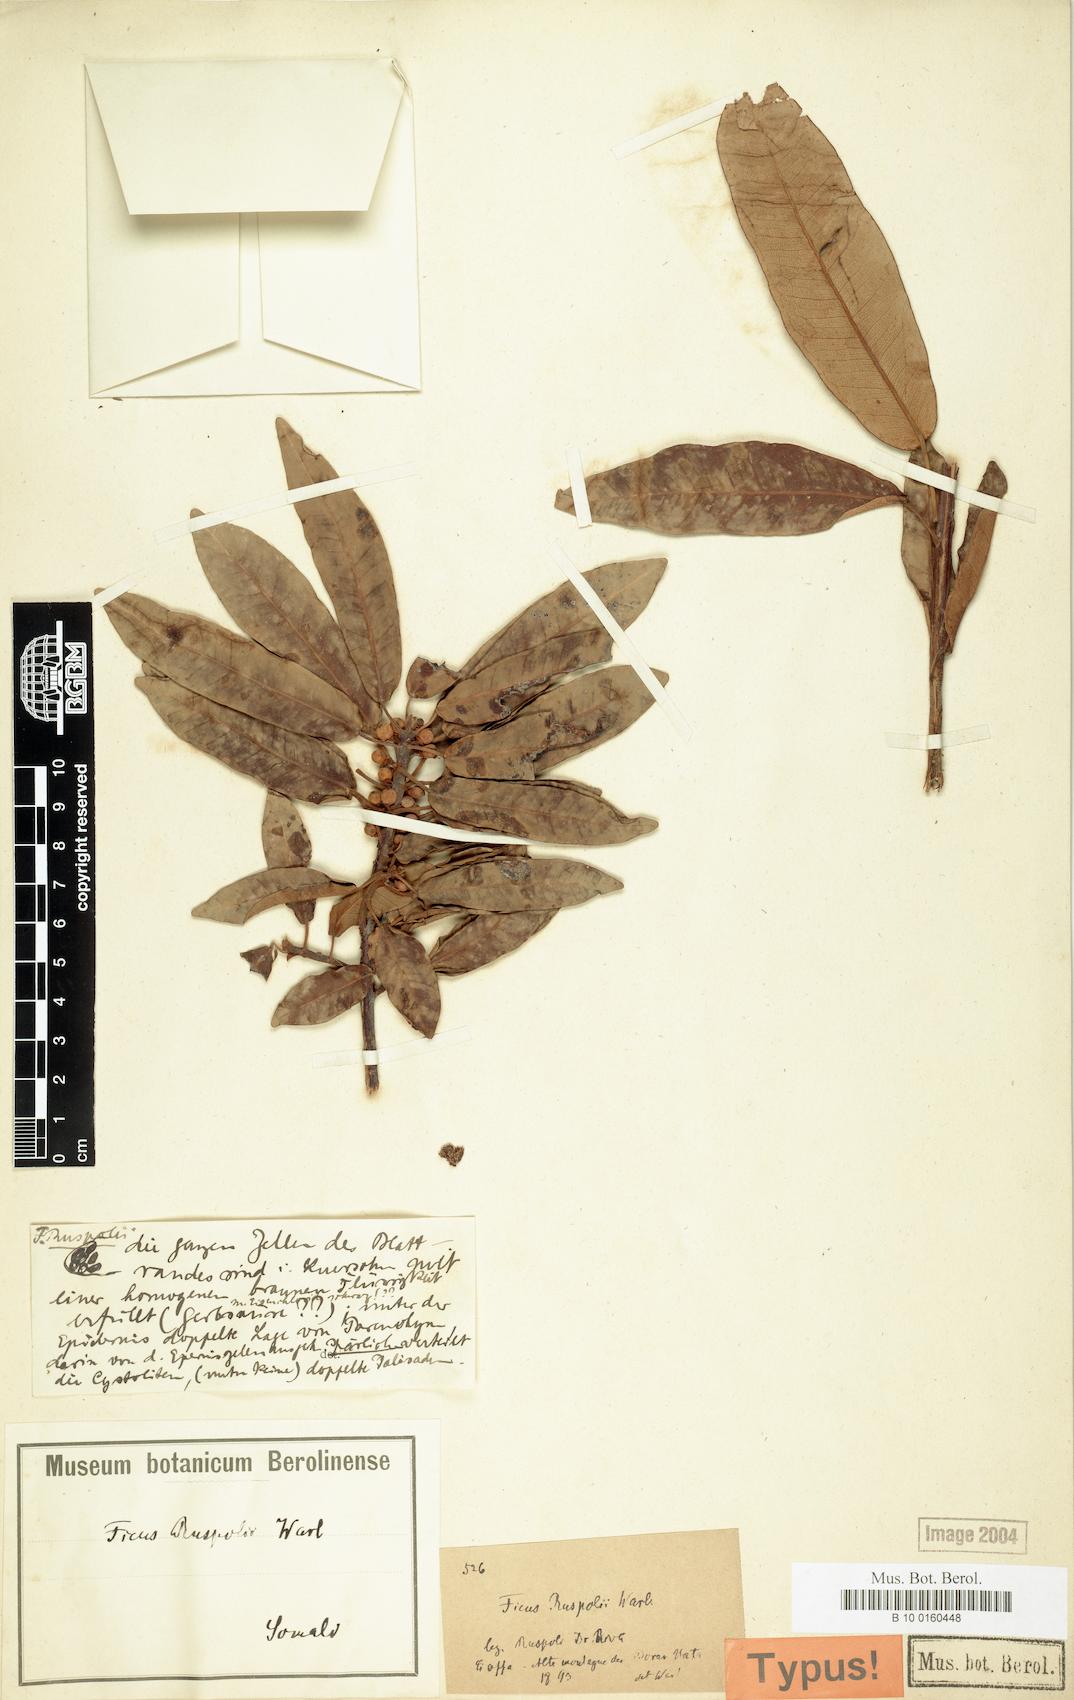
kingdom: Plantae
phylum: Tracheophyta
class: Magnoliopsida
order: Rosales
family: Moraceae
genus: Ficus
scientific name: Ficus ruspolii
